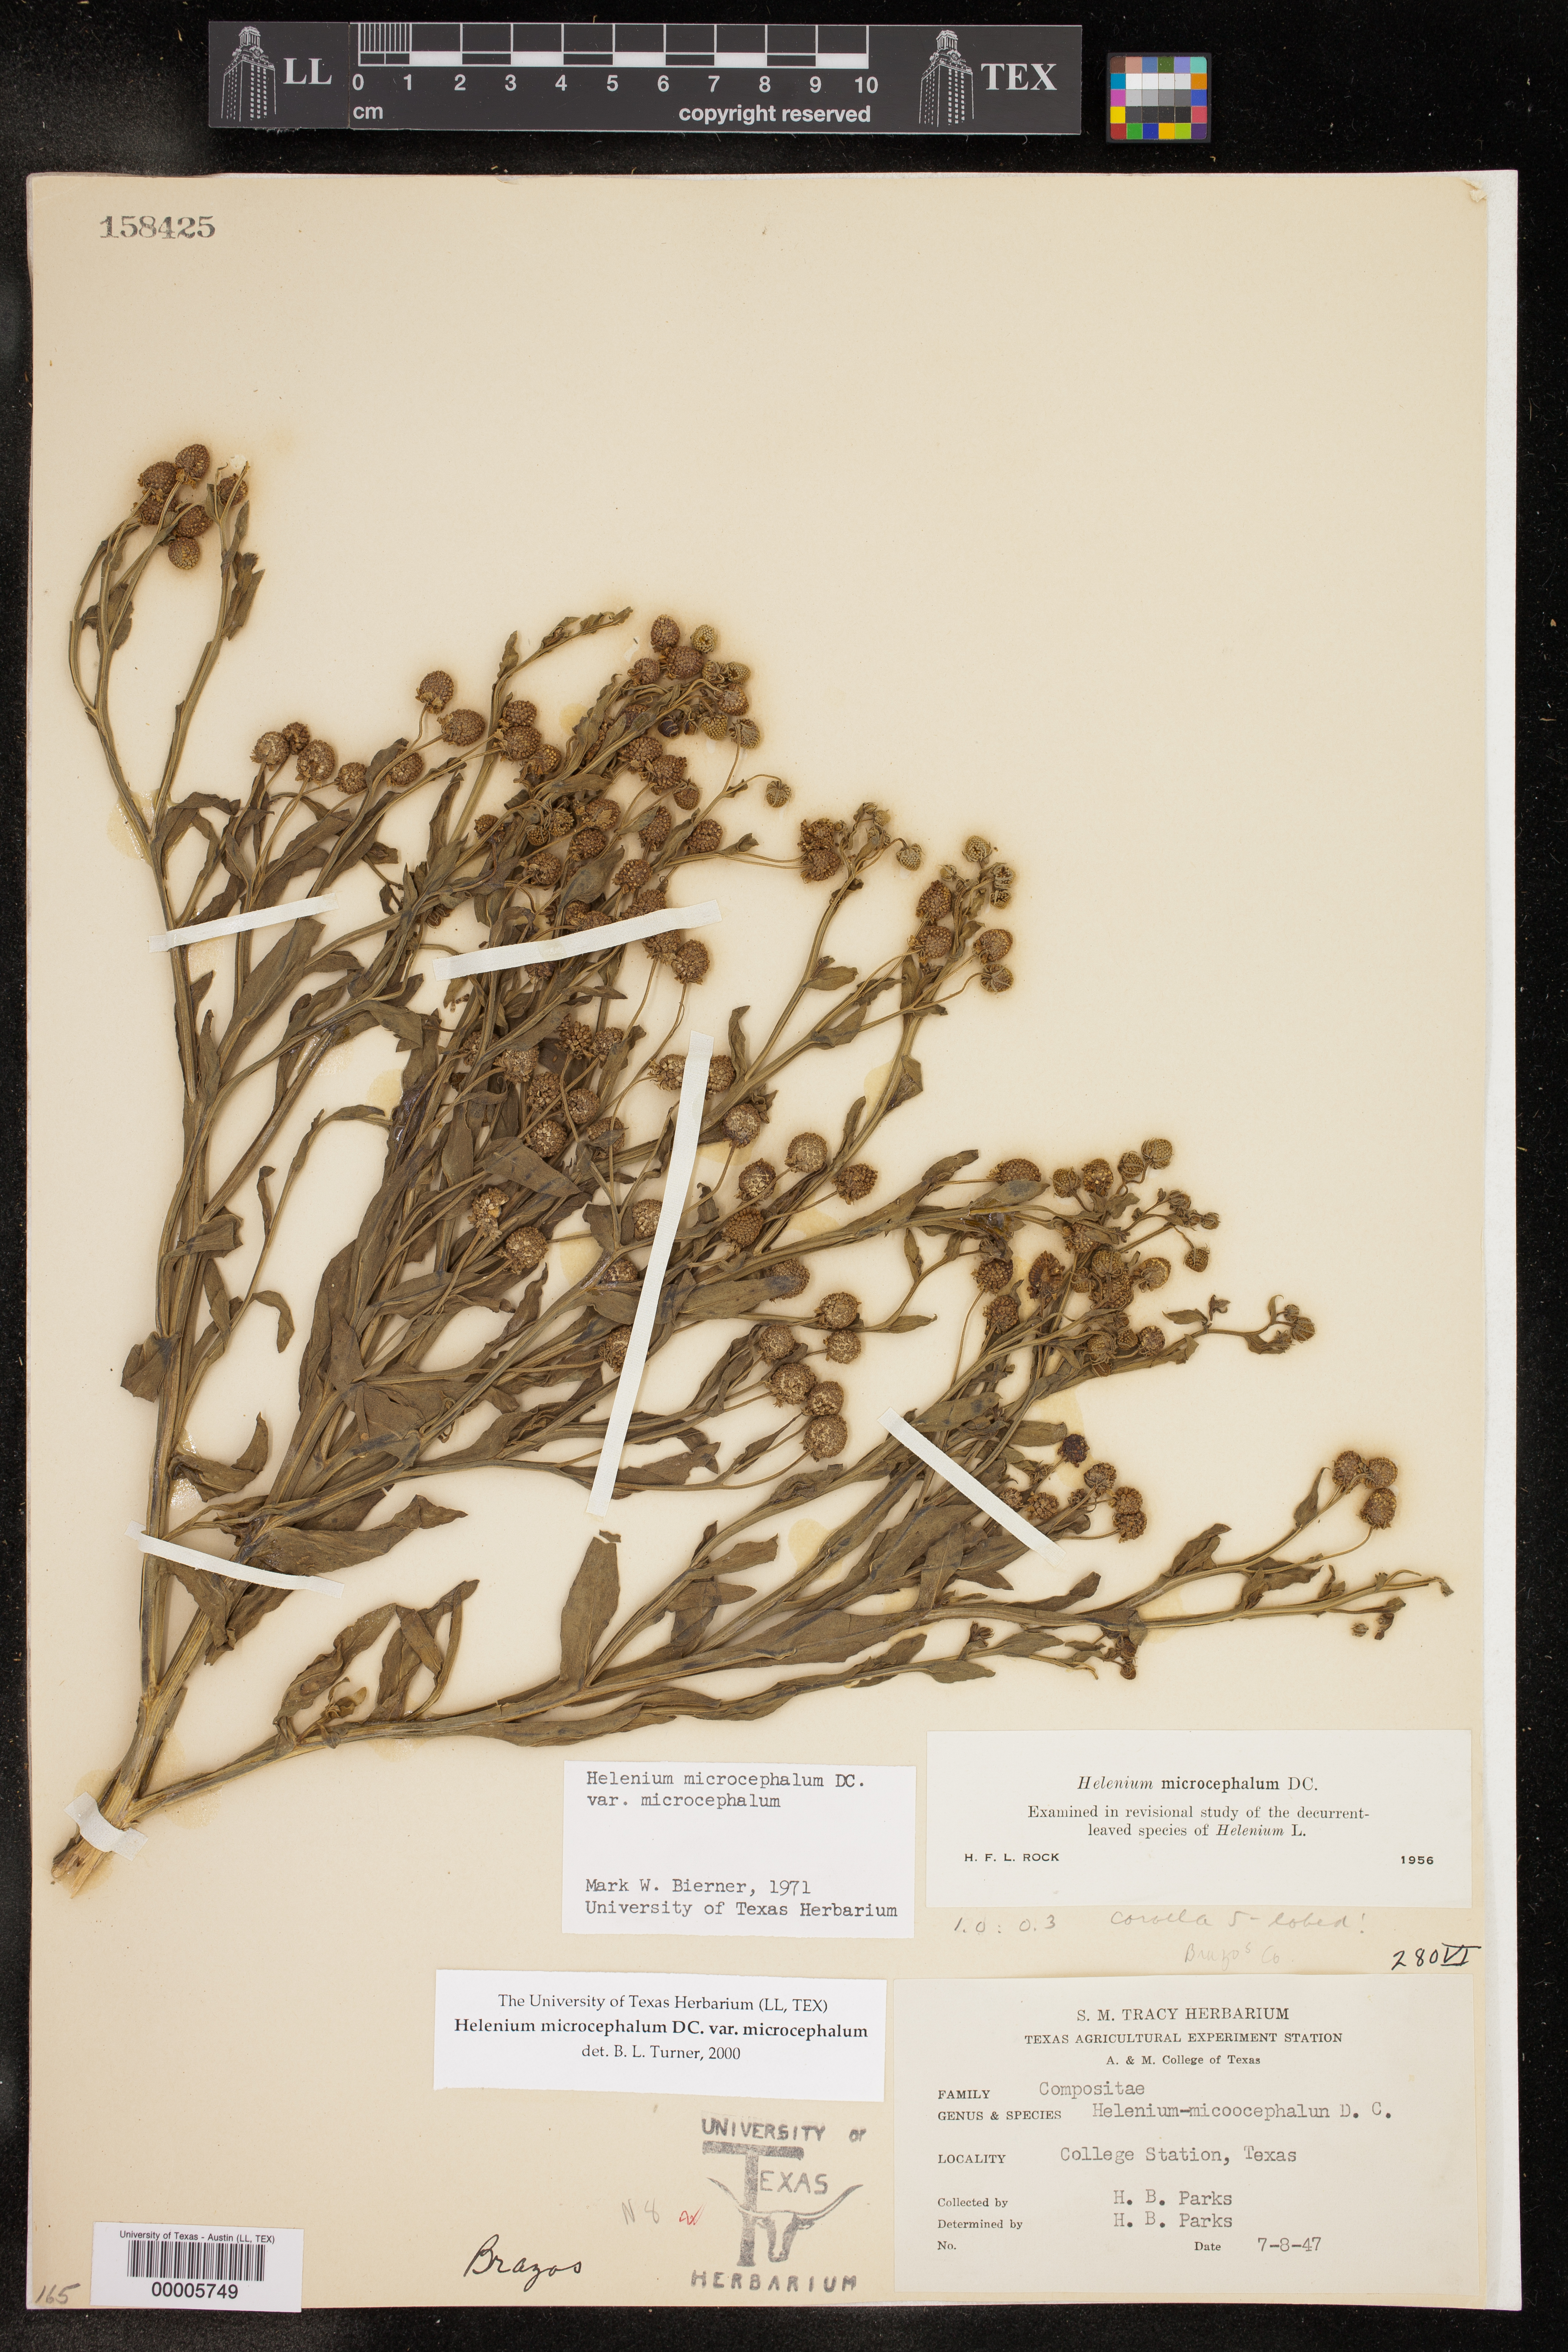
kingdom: Plantae
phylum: Tracheophyta
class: Magnoliopsida
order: Asterales
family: Asteraceae
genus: Helenium
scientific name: Helenium microcephalum
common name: Smallhead sneezeweed
